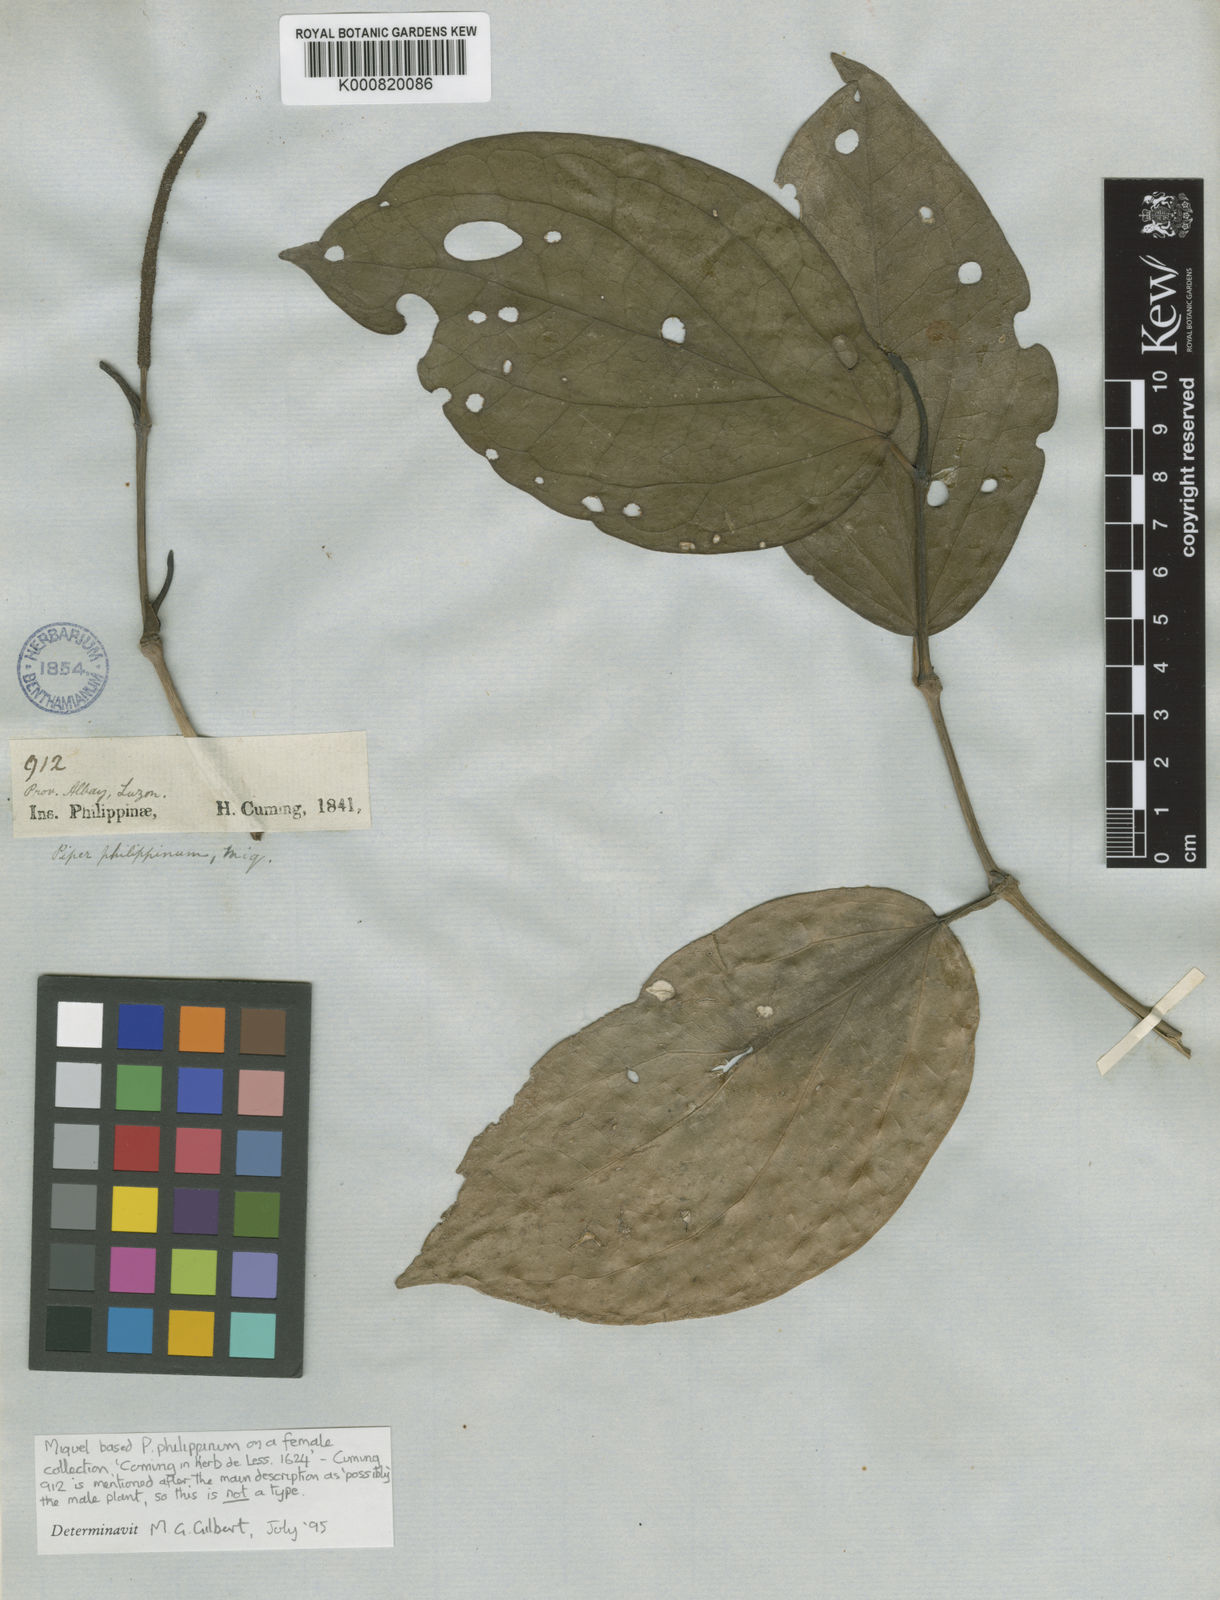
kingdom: Plantae
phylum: Tracheophyta
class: Magnoliopsida
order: Piperales
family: Piperaceae
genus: Piper
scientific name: Piper philippinum
